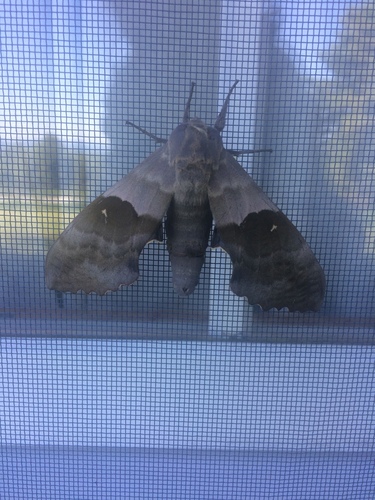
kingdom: Animalia
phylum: Arthropoda
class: Insecta
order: Lepidoptera
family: Sphingidae
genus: Pachysphinx
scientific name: Pachysphinx modesta
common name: Big poplar sphinx
